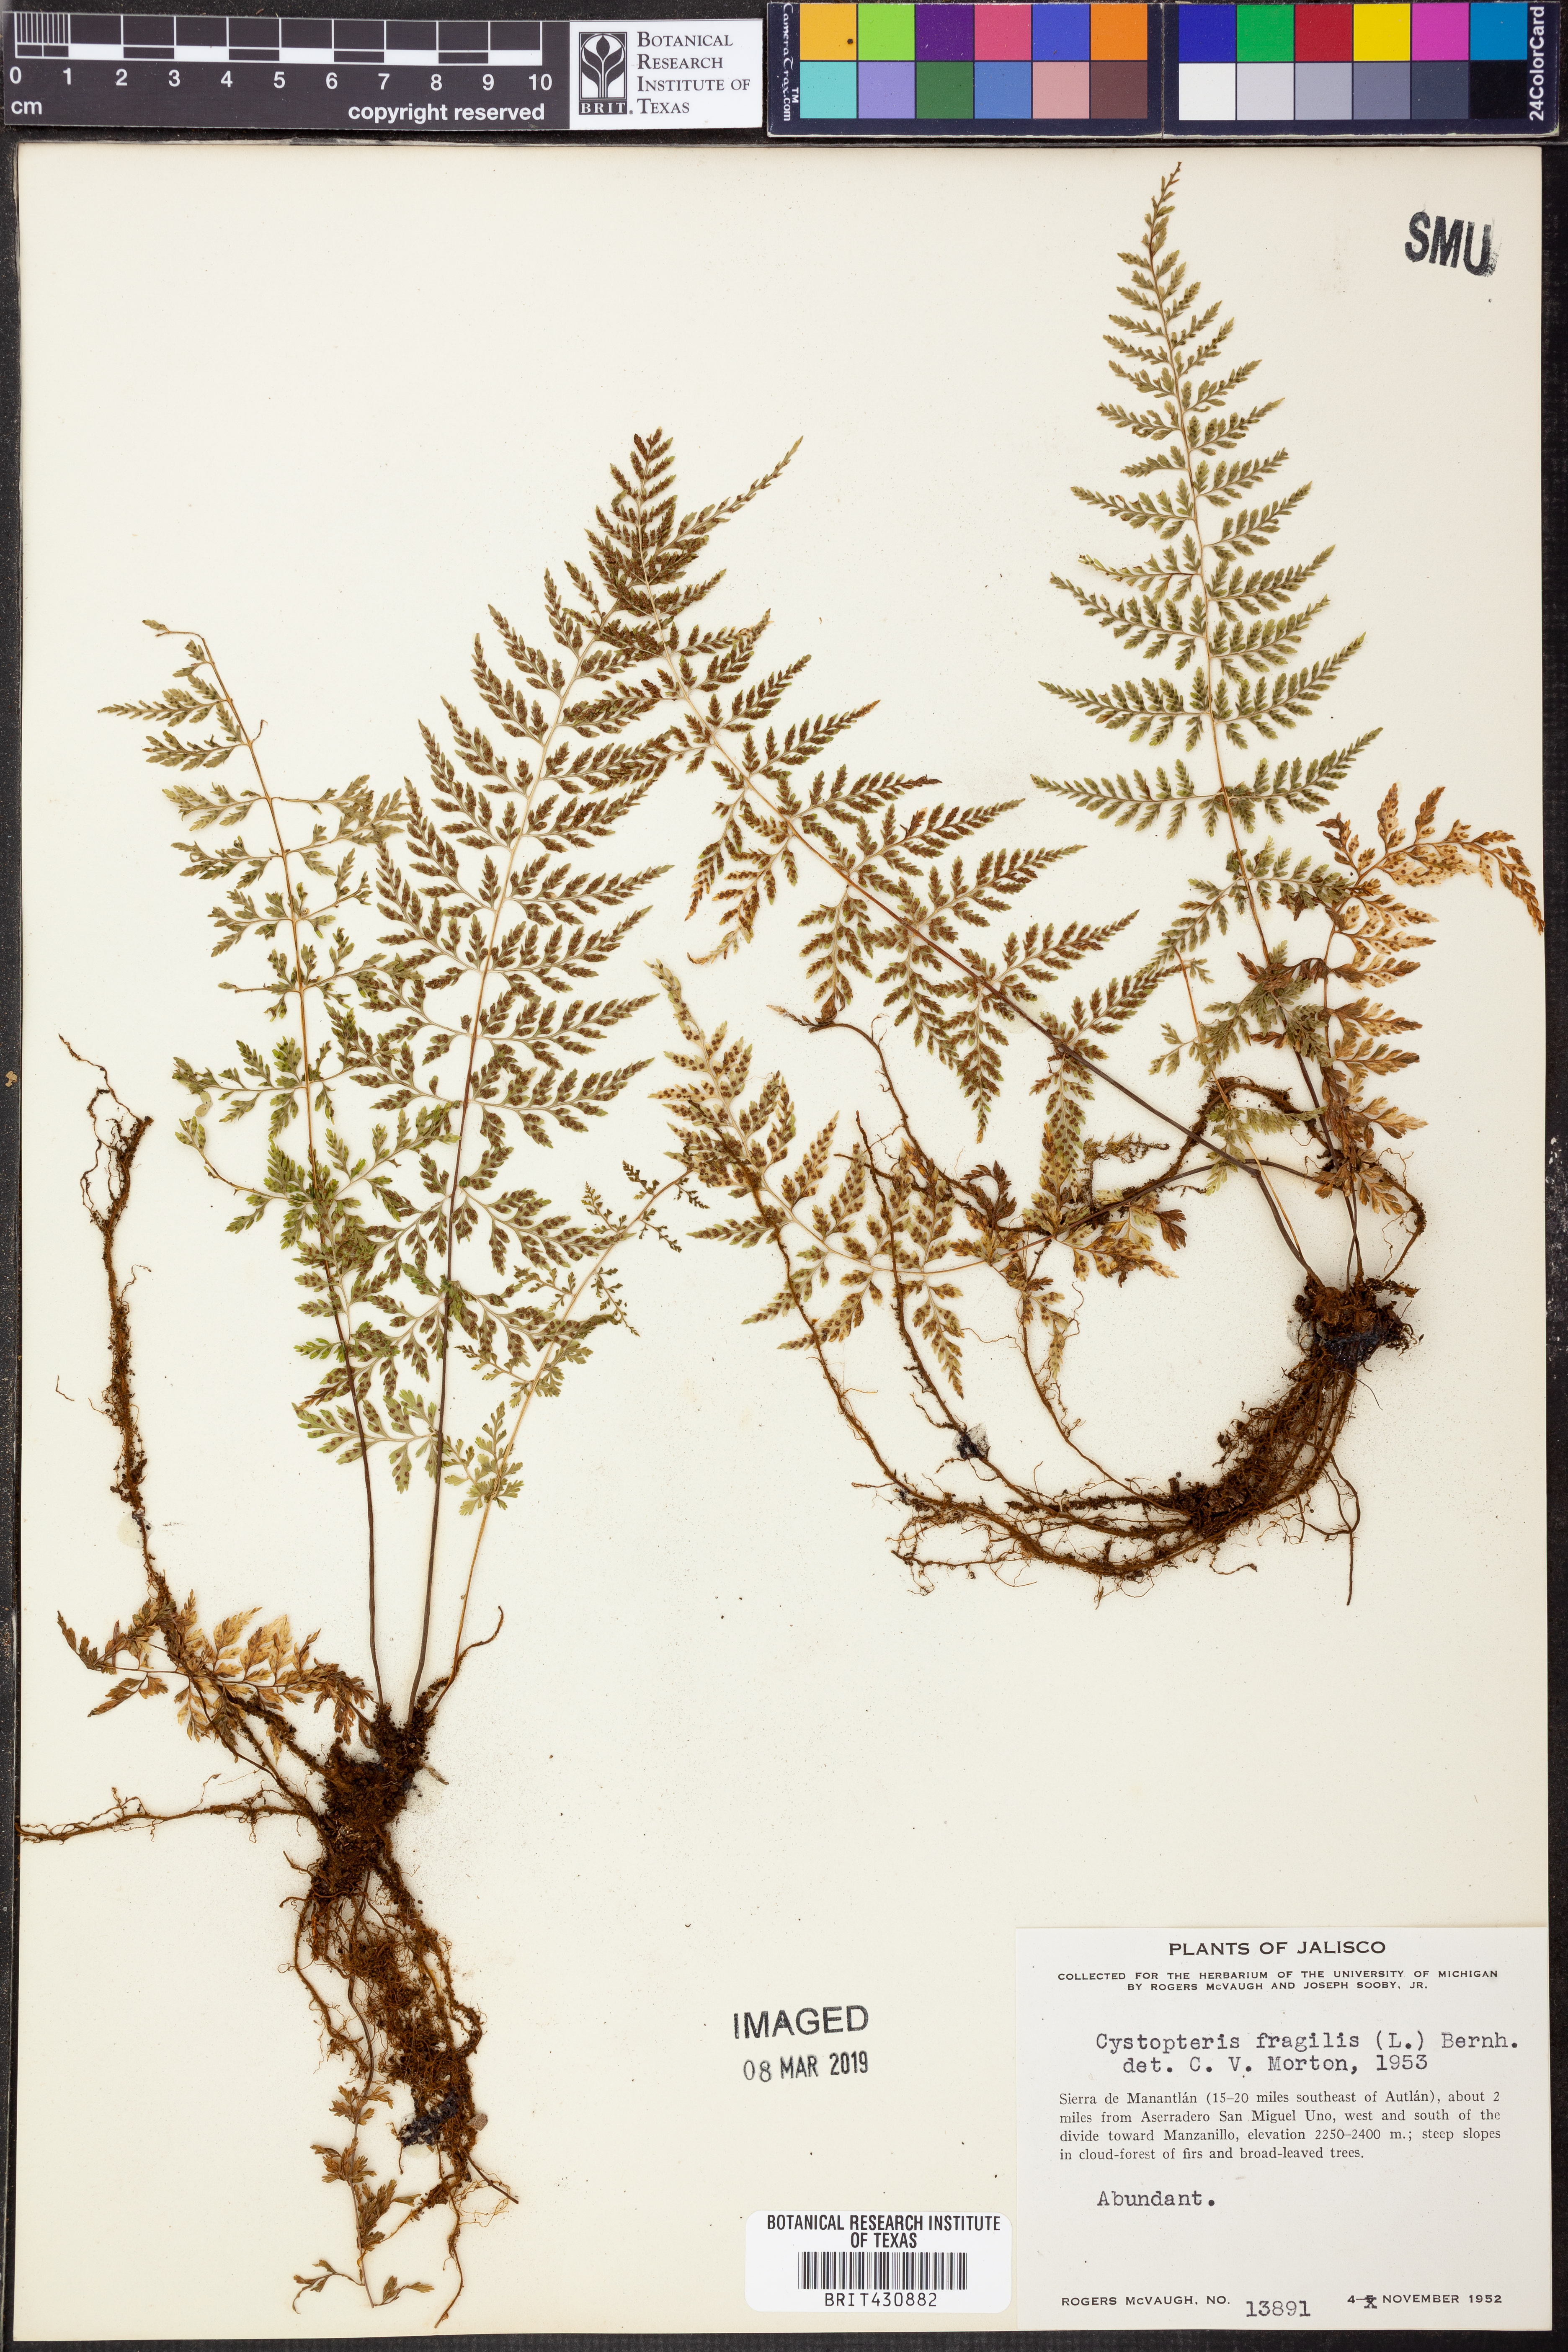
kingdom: Plantae
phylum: Tracheophyta
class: Polypodiopsida
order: Polypodiales
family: Cystopteridaceae
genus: Cystopteris
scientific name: Cystopteris fragilis
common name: Brittle bladder fern
